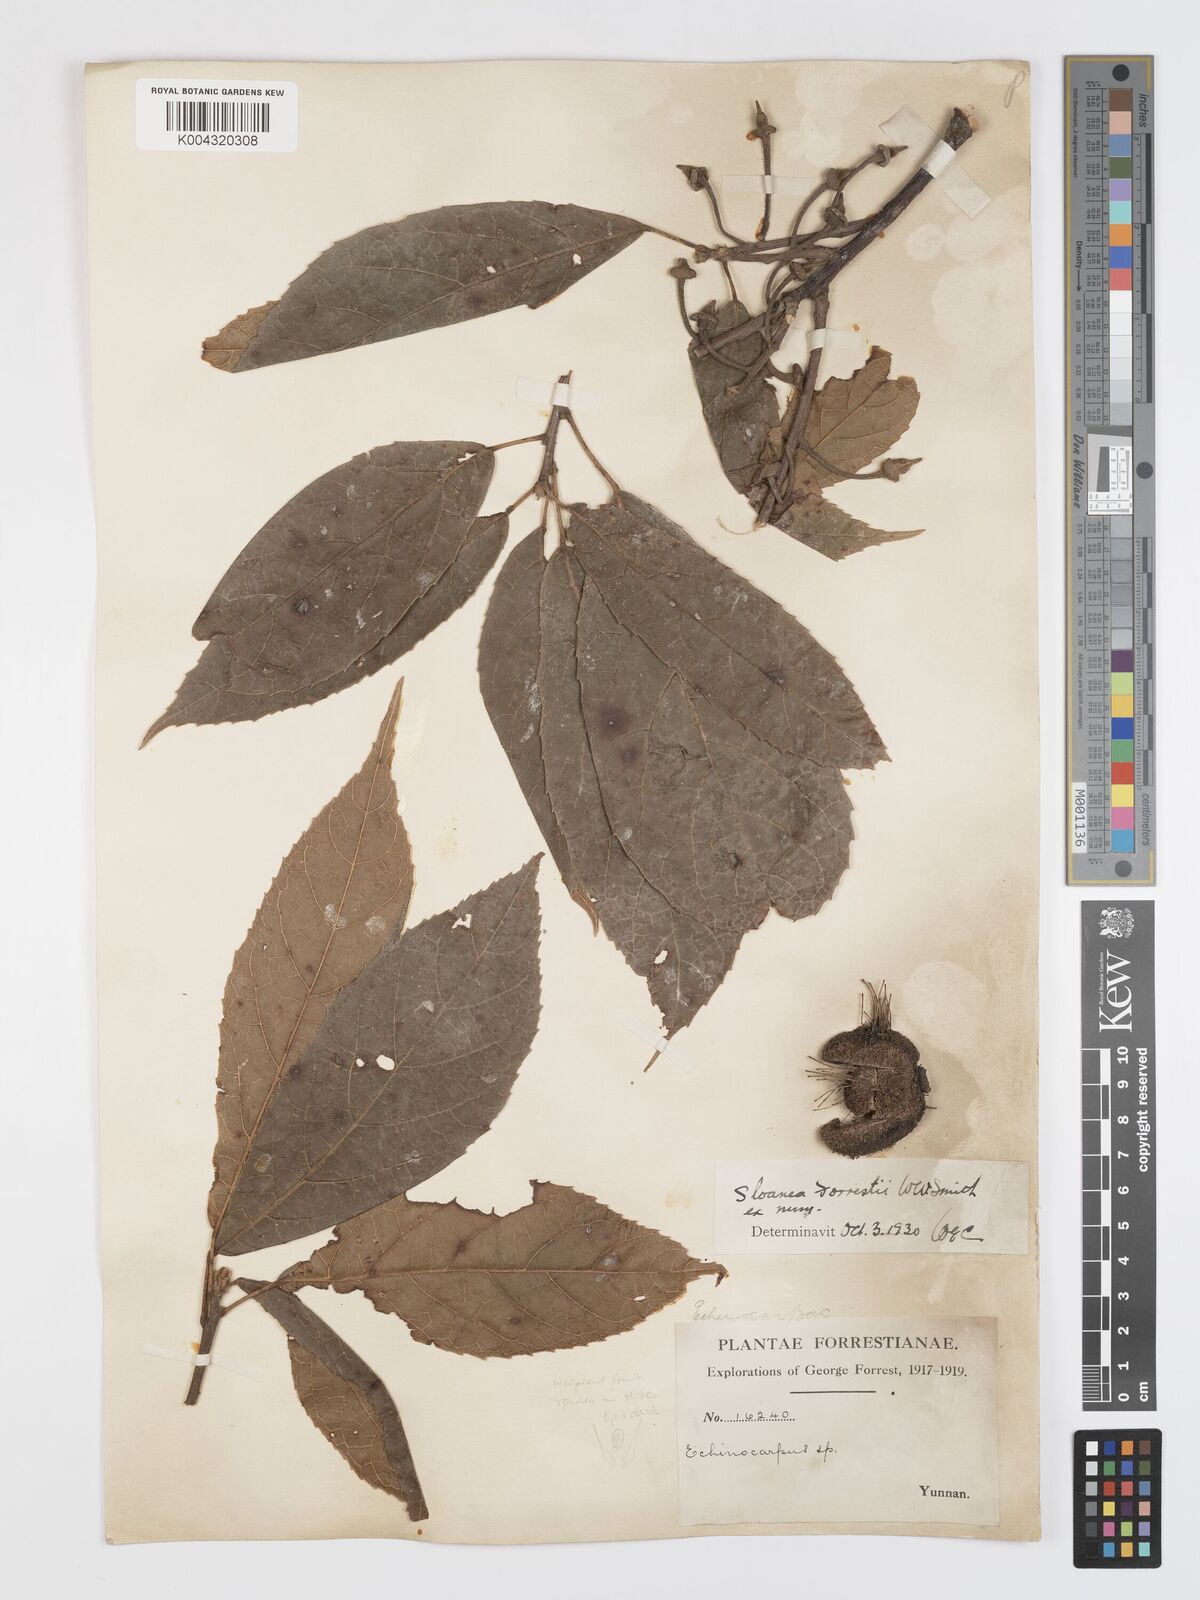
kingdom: Plantae
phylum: Tracheophyta
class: Magnoliopsida
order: Oxalidales
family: Elaeocarpaceae
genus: Sloanea
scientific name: Sloanea sterculiacea
